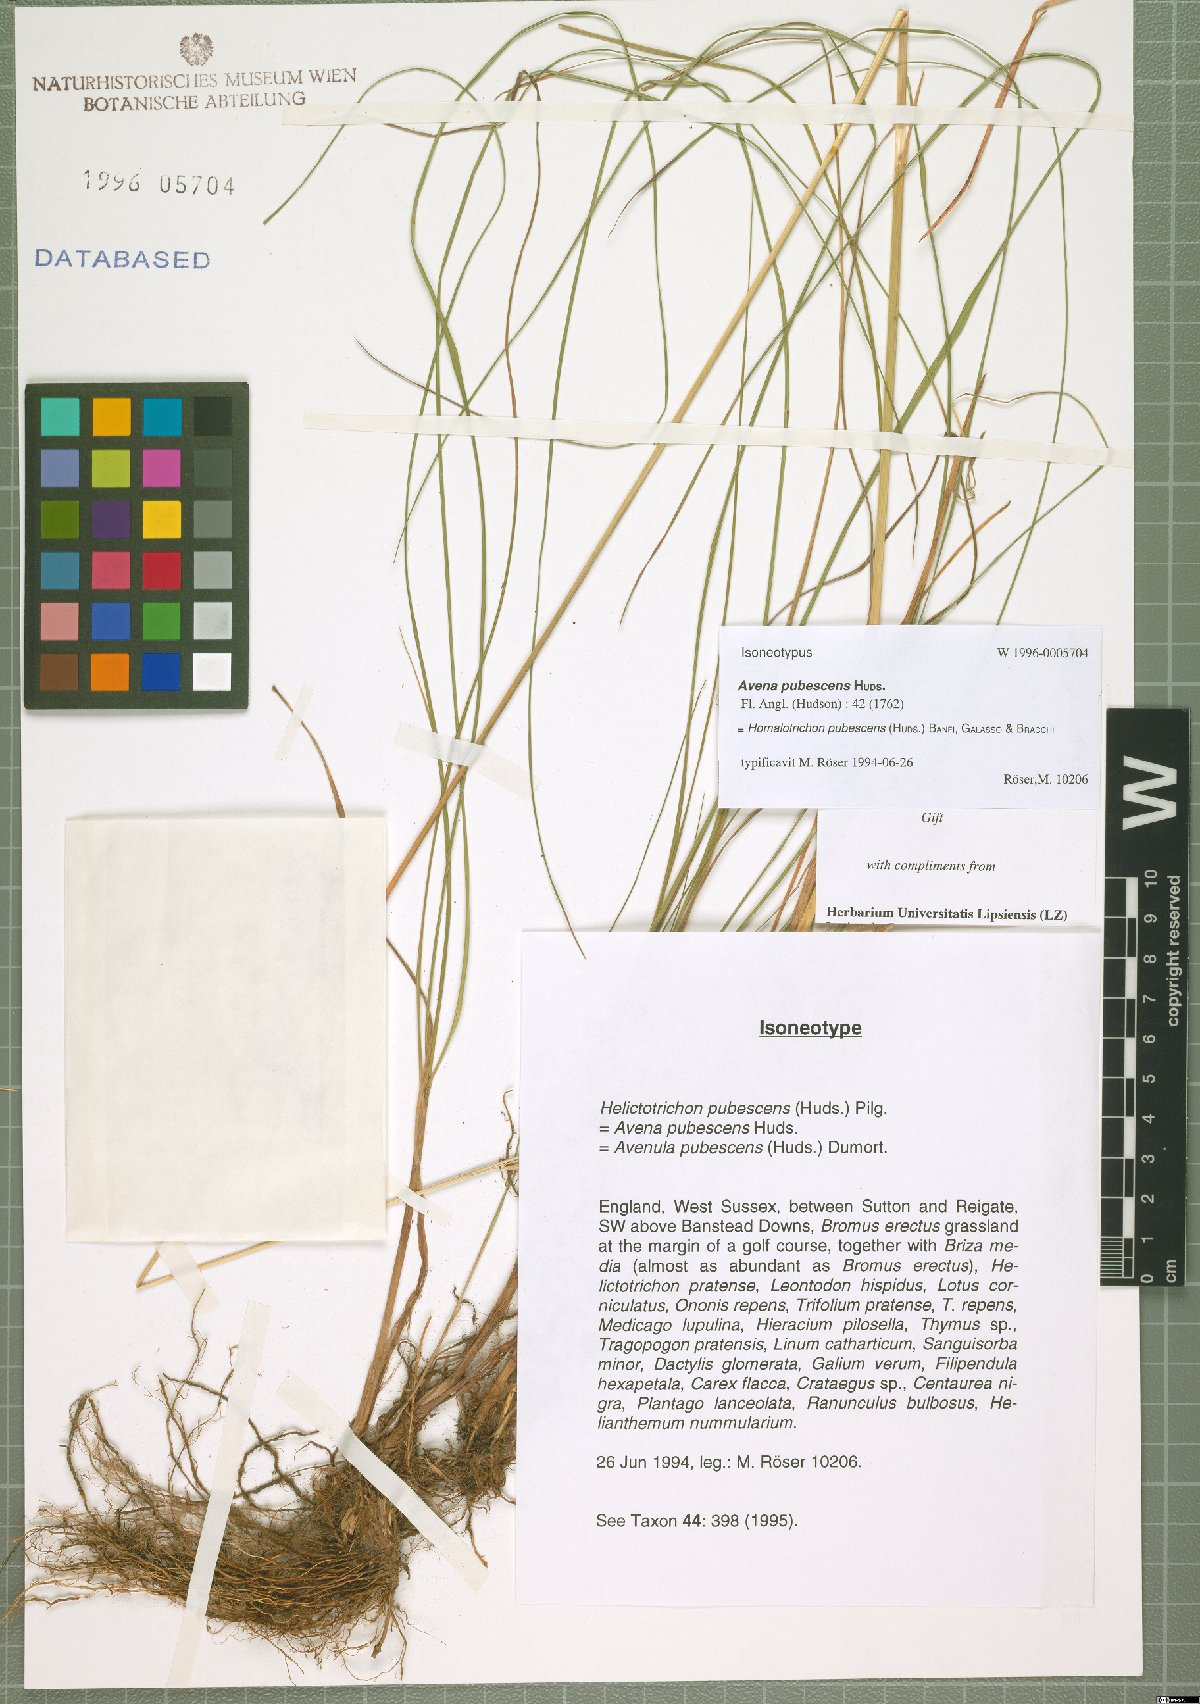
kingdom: Plantae
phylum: Tracheophyta
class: Liliopsida
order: Poales
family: Poaceae
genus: Avenula
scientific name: Avenula pubescens
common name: Downy alpine oatgrass
